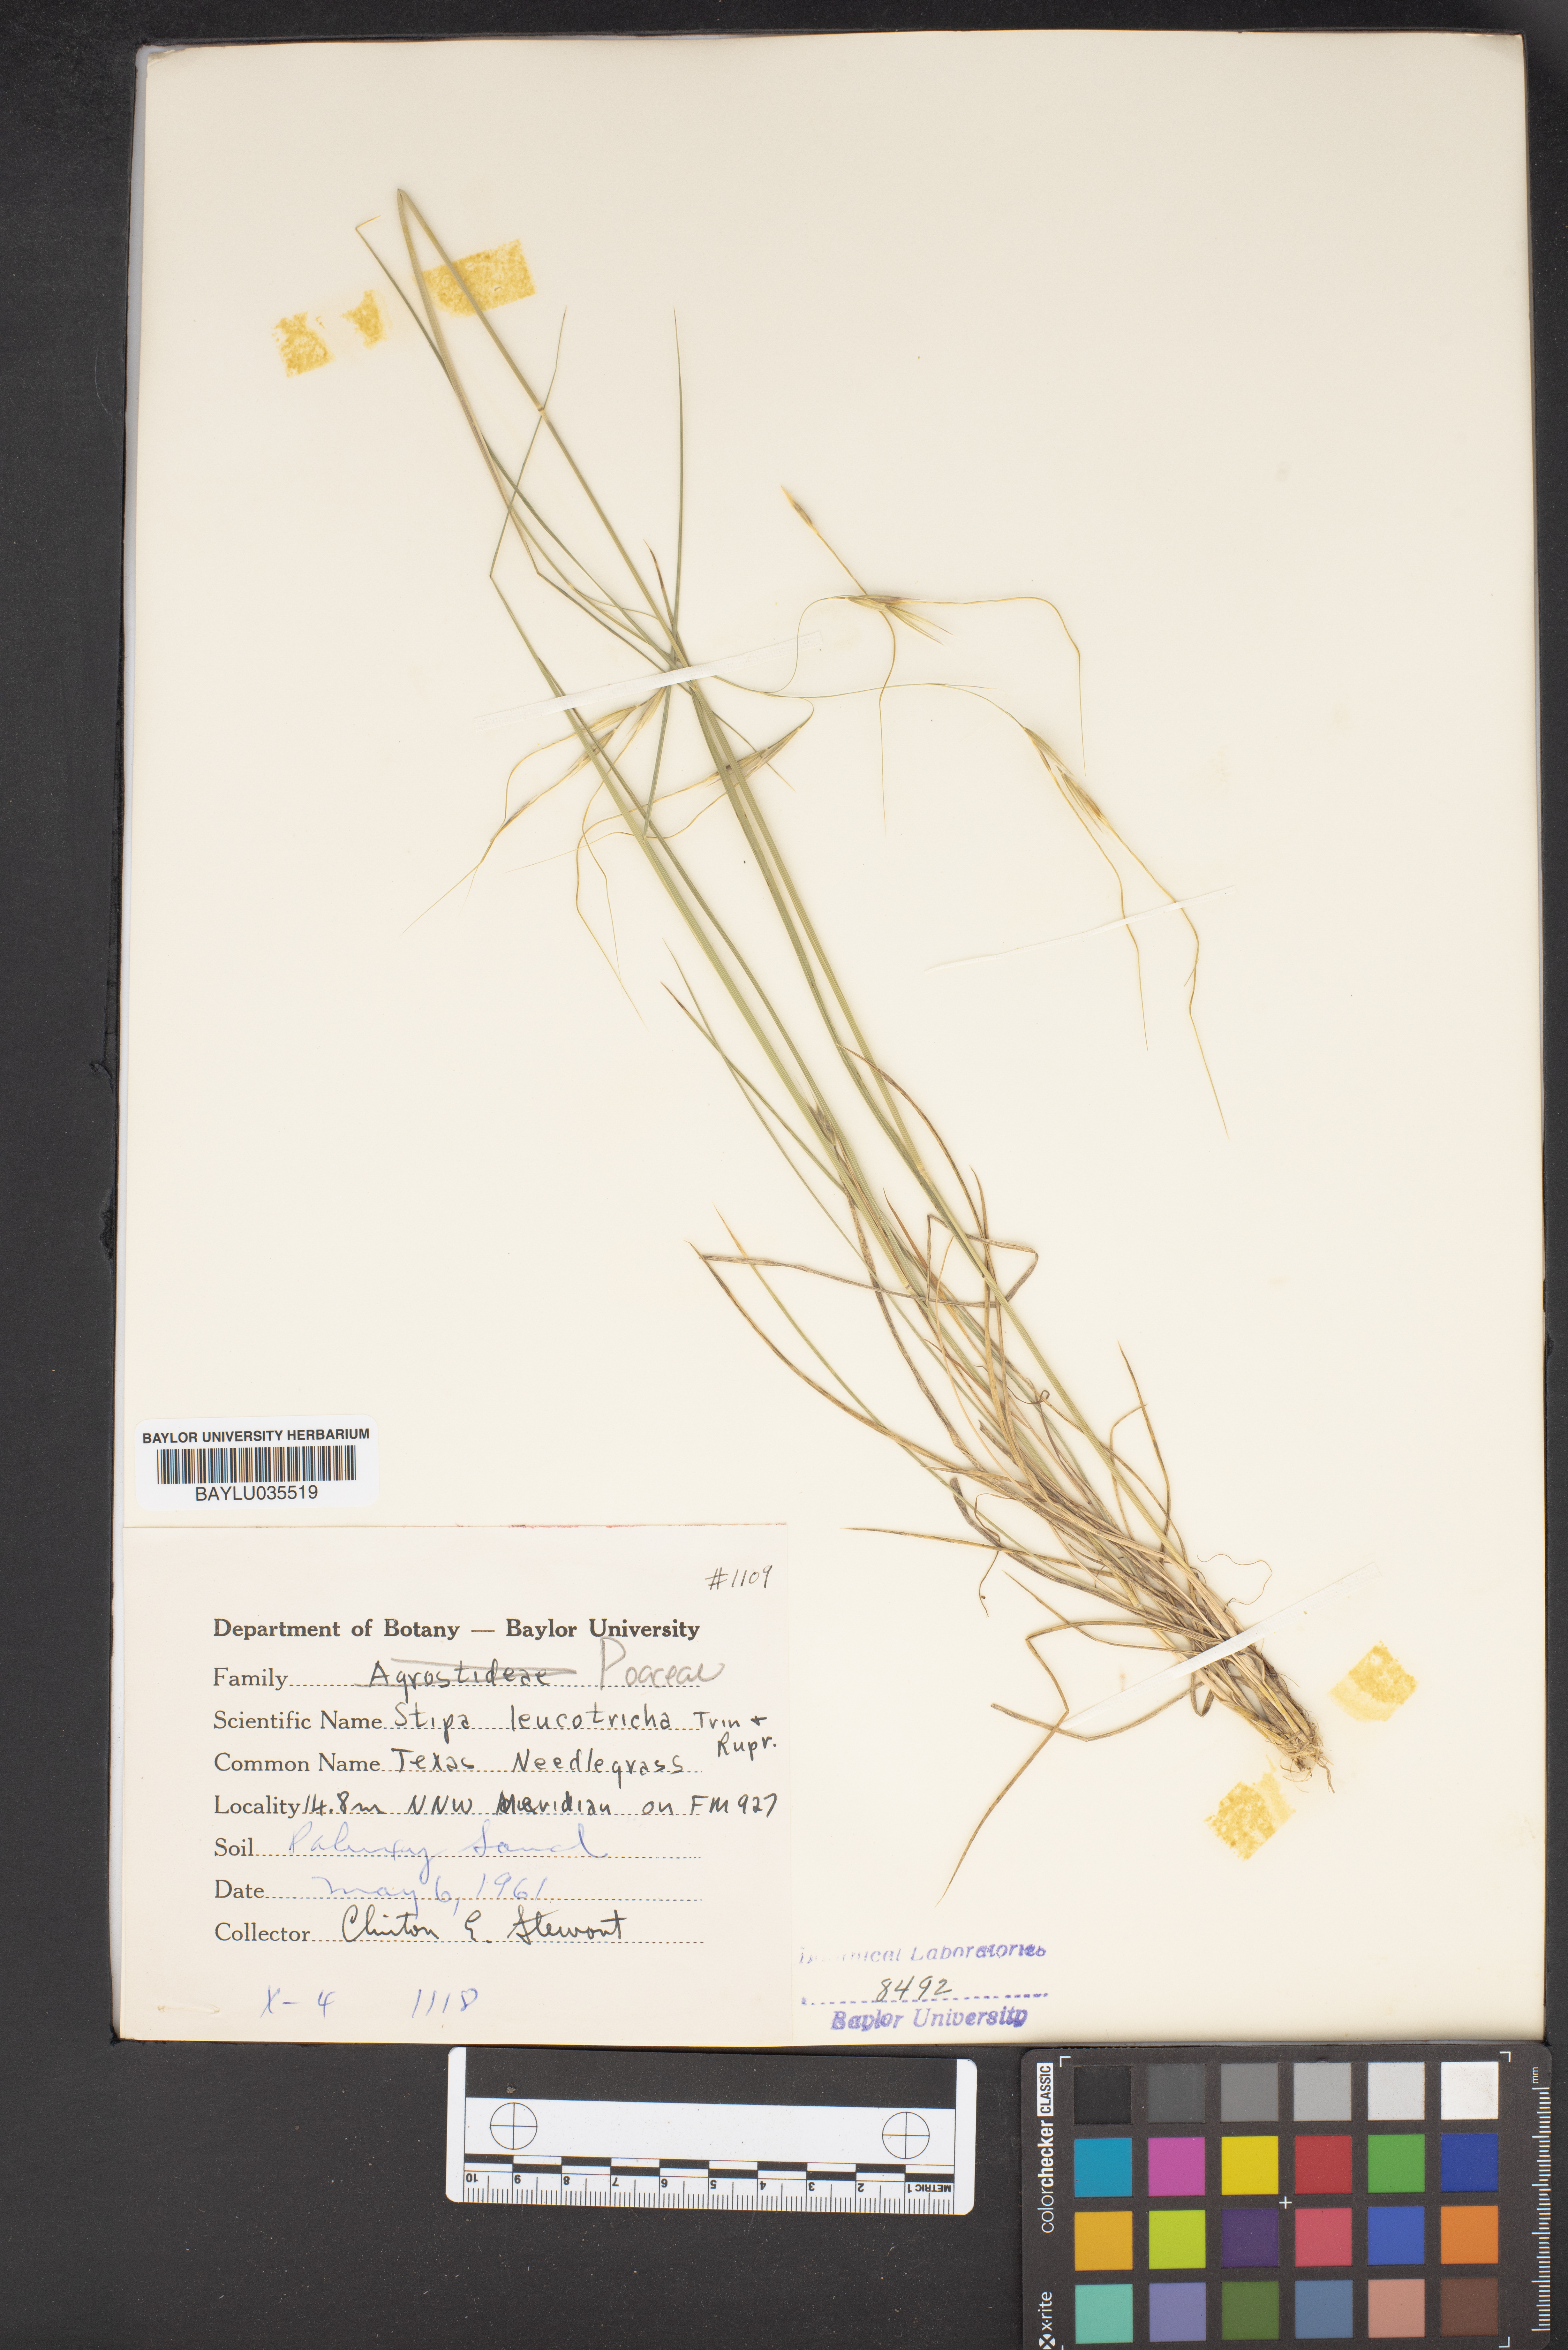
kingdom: Plantae
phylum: Tracheophyta
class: Liliopsida
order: Poales
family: Poaceae
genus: Nassella
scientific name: Nassella leucotricha
